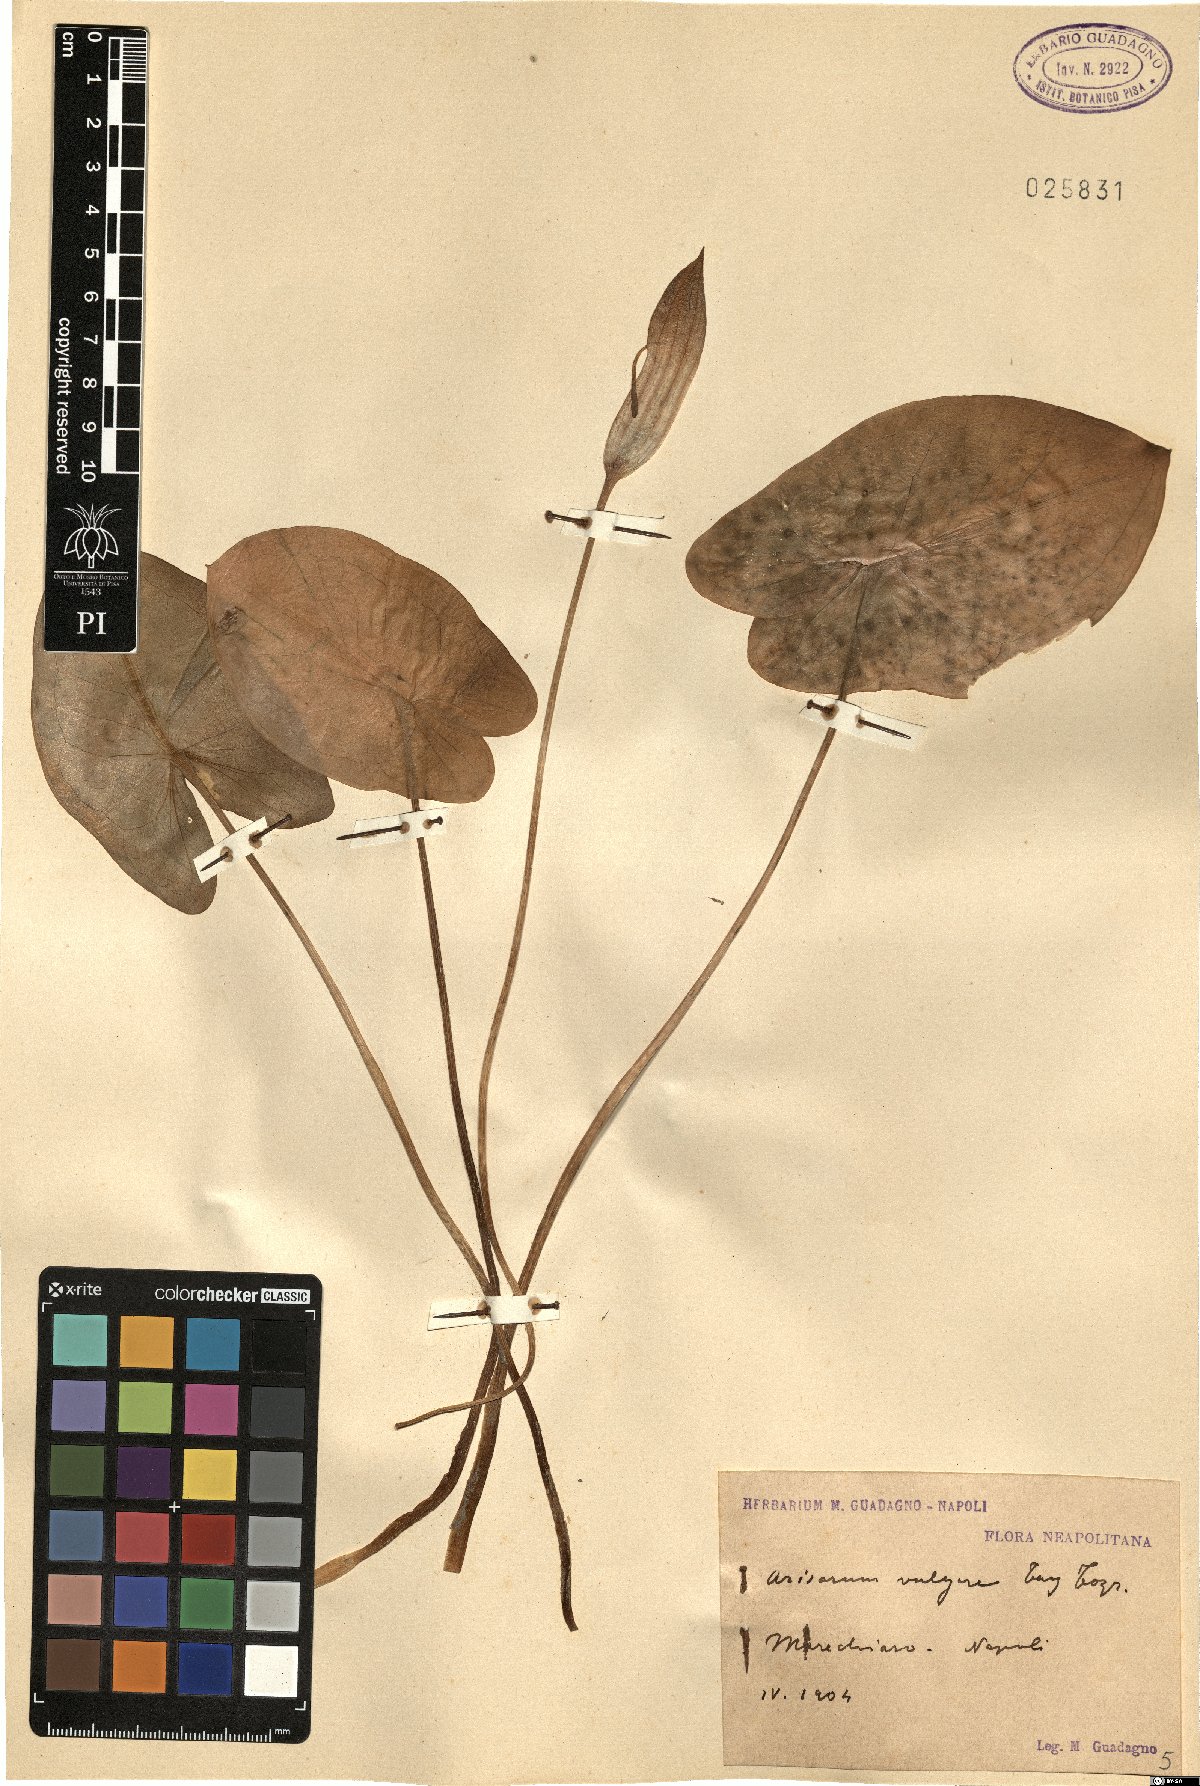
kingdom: Plantae
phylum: Tracheophyta
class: Liliopsida
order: Alismatales
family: Araceae
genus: Arisarum
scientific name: Arisarum vulgare
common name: Common arisarum
